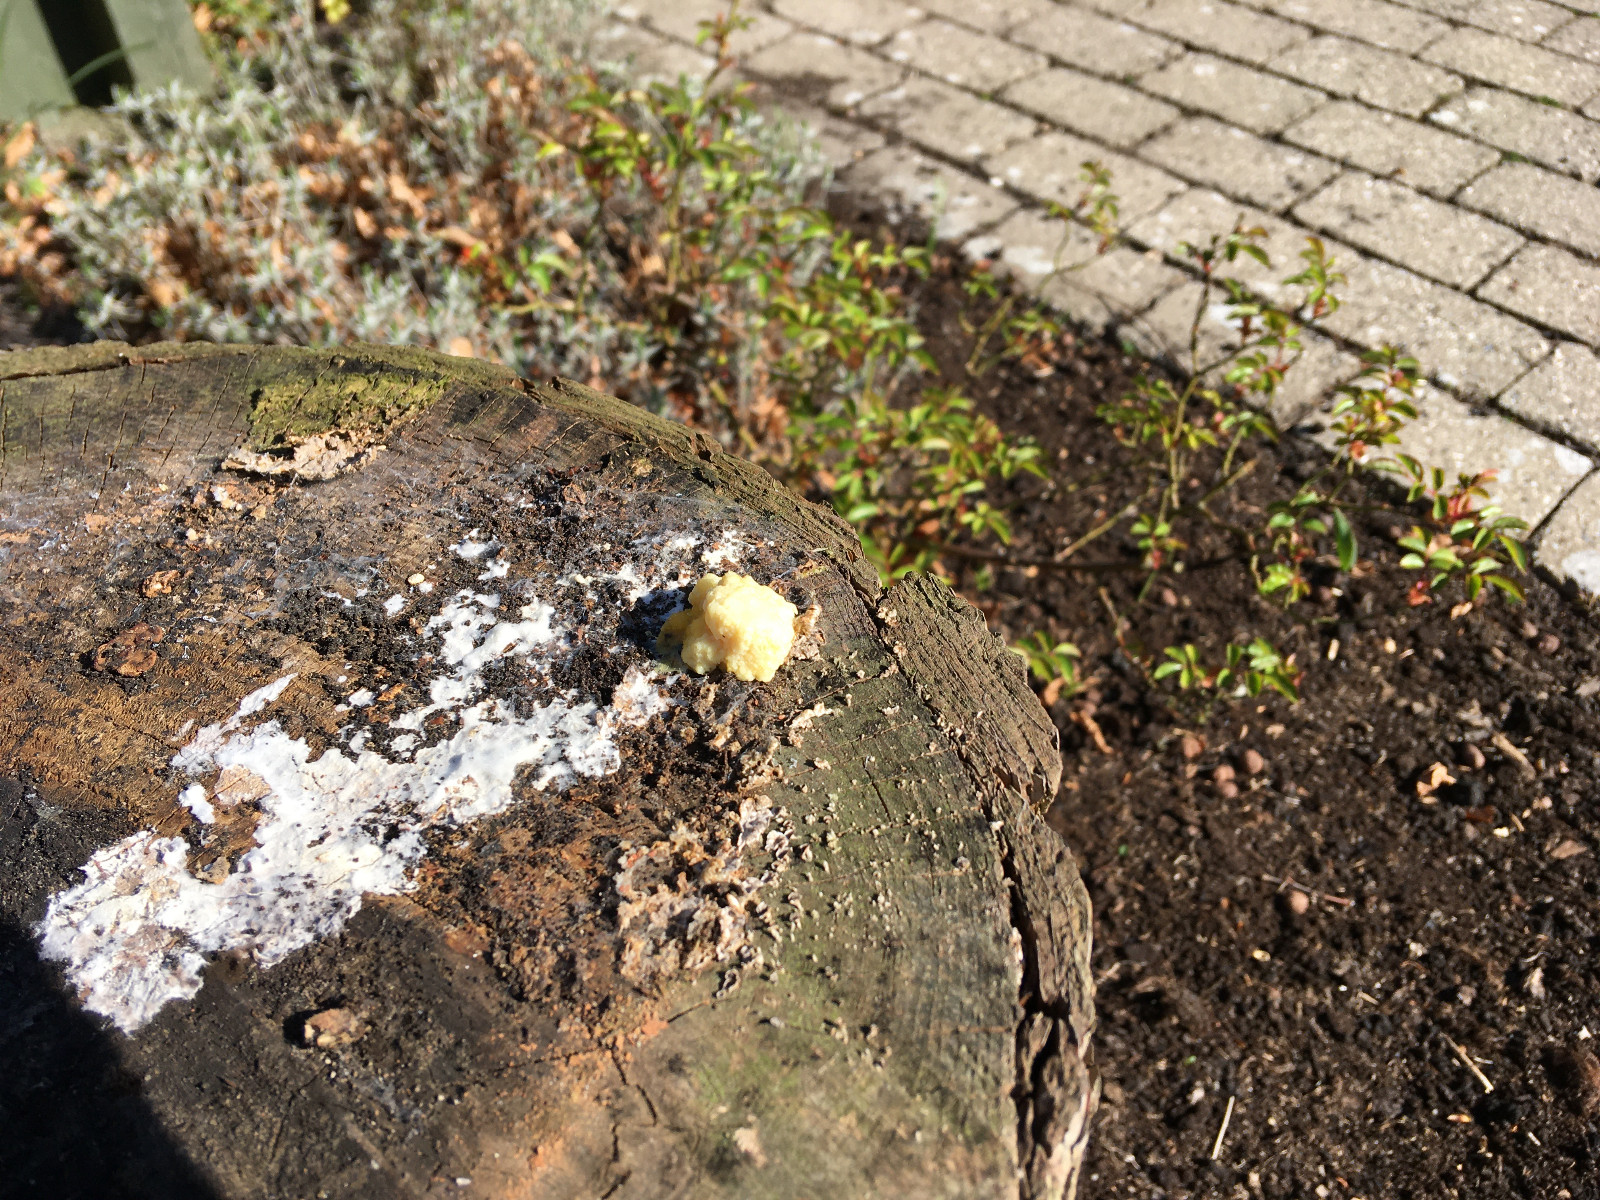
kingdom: Protozoa
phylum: Mycetozoa
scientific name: Mycetozoa
